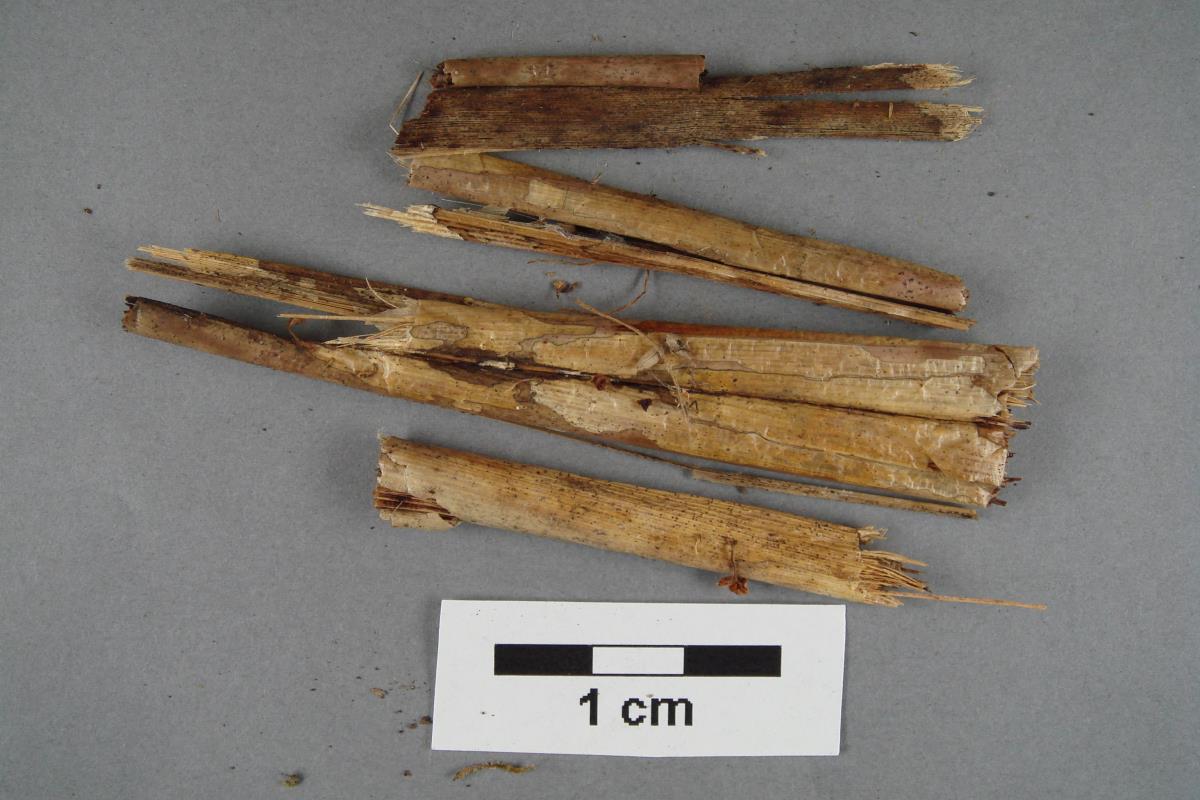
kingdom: Fungi
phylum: Basidiomycota
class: Agaricomycetes
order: Agaricales
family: Omphalotaceae
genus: Marasmiellus
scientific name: Marasmiellus bonii
